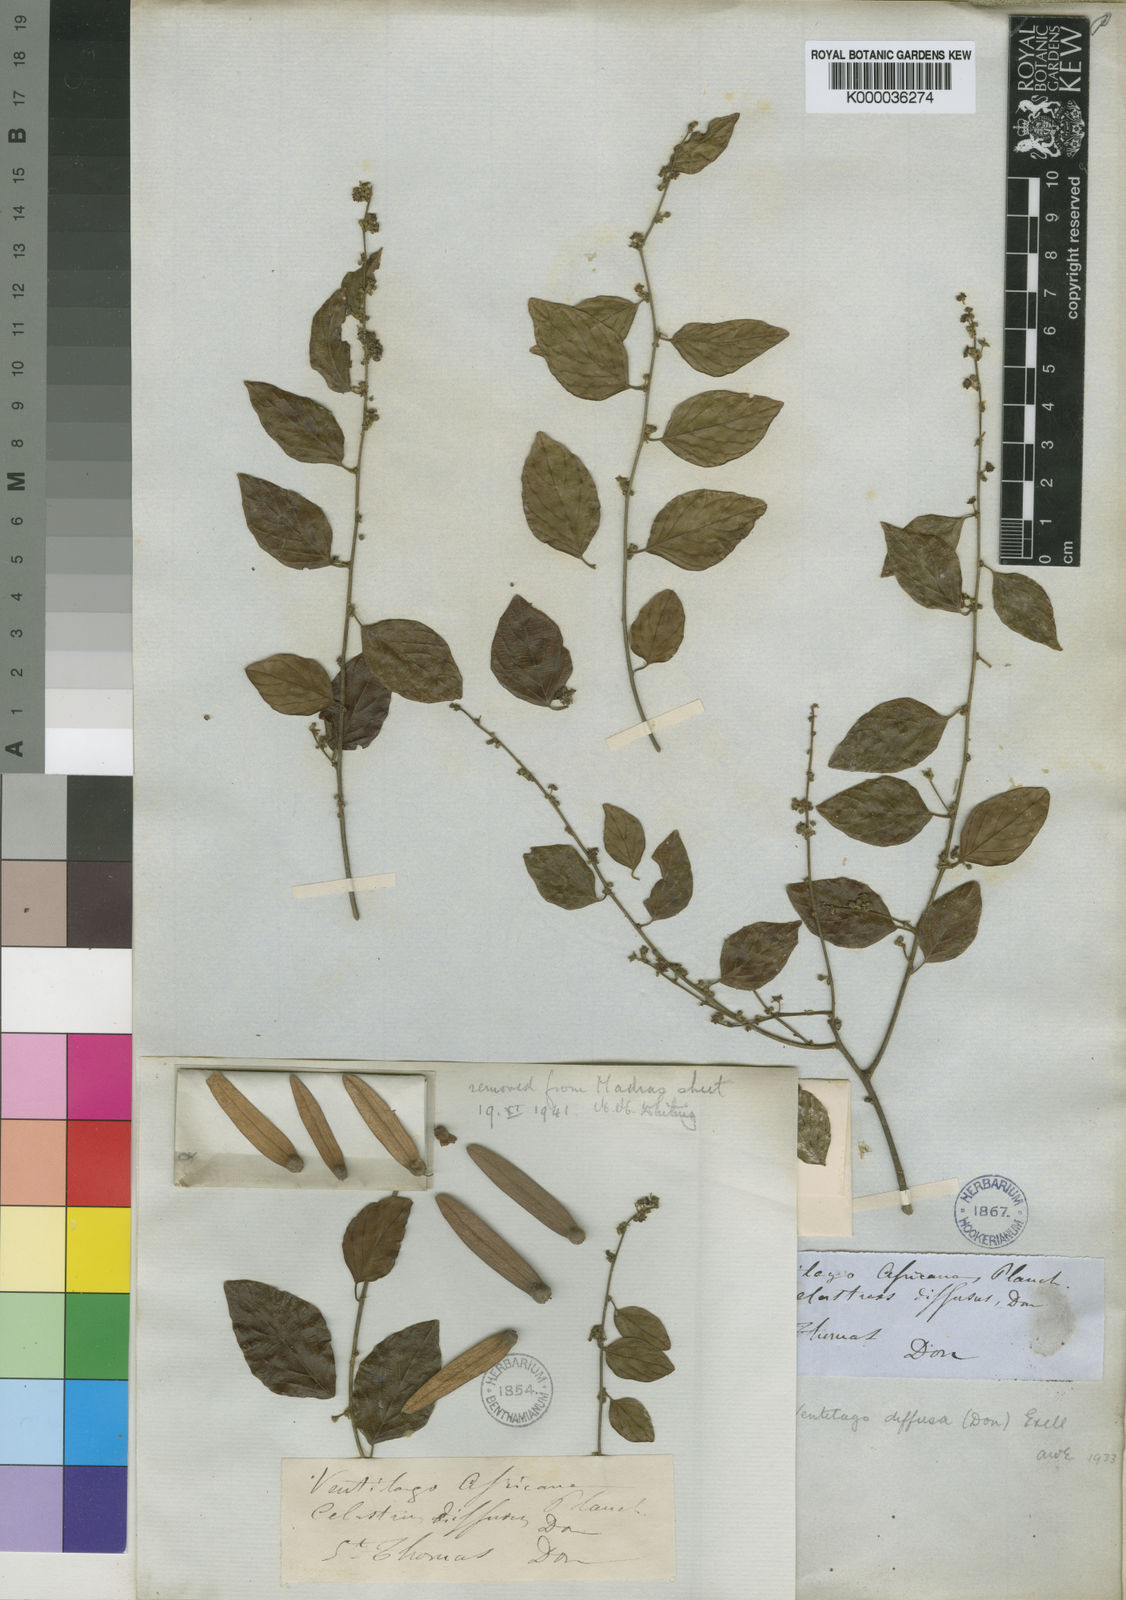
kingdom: Plantae
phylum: Tracheophyta
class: Magnoliopsida
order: Rosales
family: Rhamnaceae
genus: Ventilago
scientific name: Ventilago diffusa
